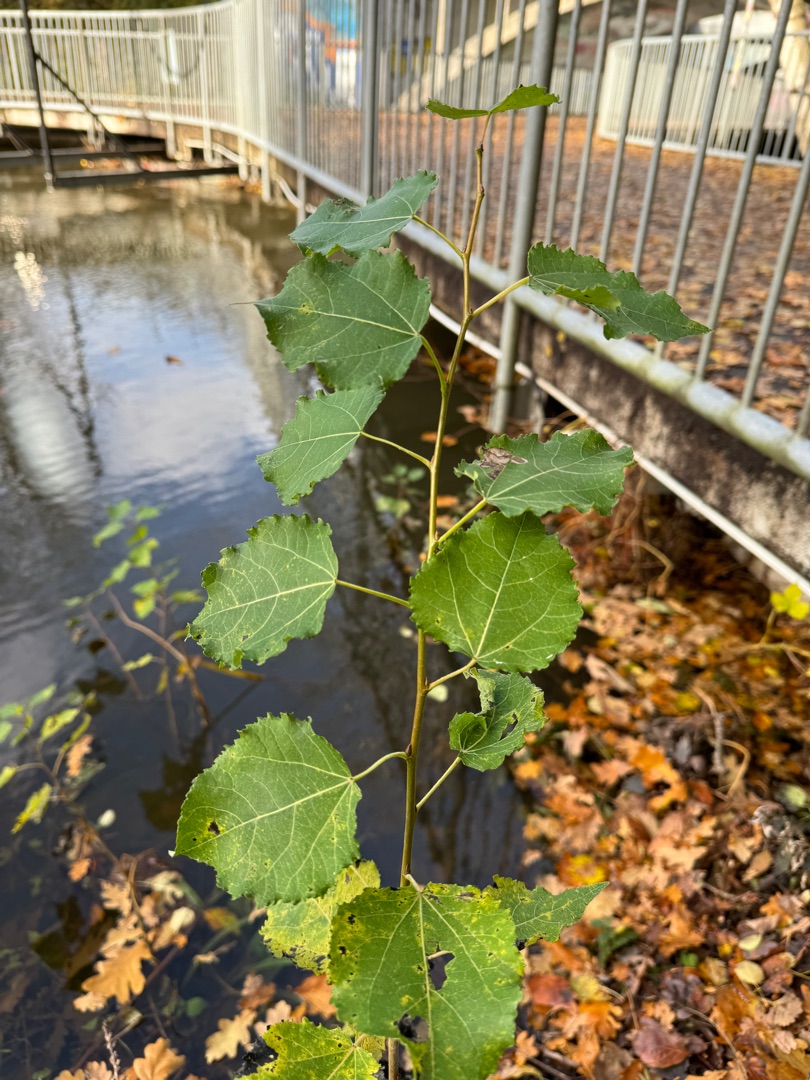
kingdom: Plantae
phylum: Tracheophyta
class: Magnoliopsida
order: Malpighiales
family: Salicaceae
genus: Populus
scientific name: Populus tremula
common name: Bævreasp
